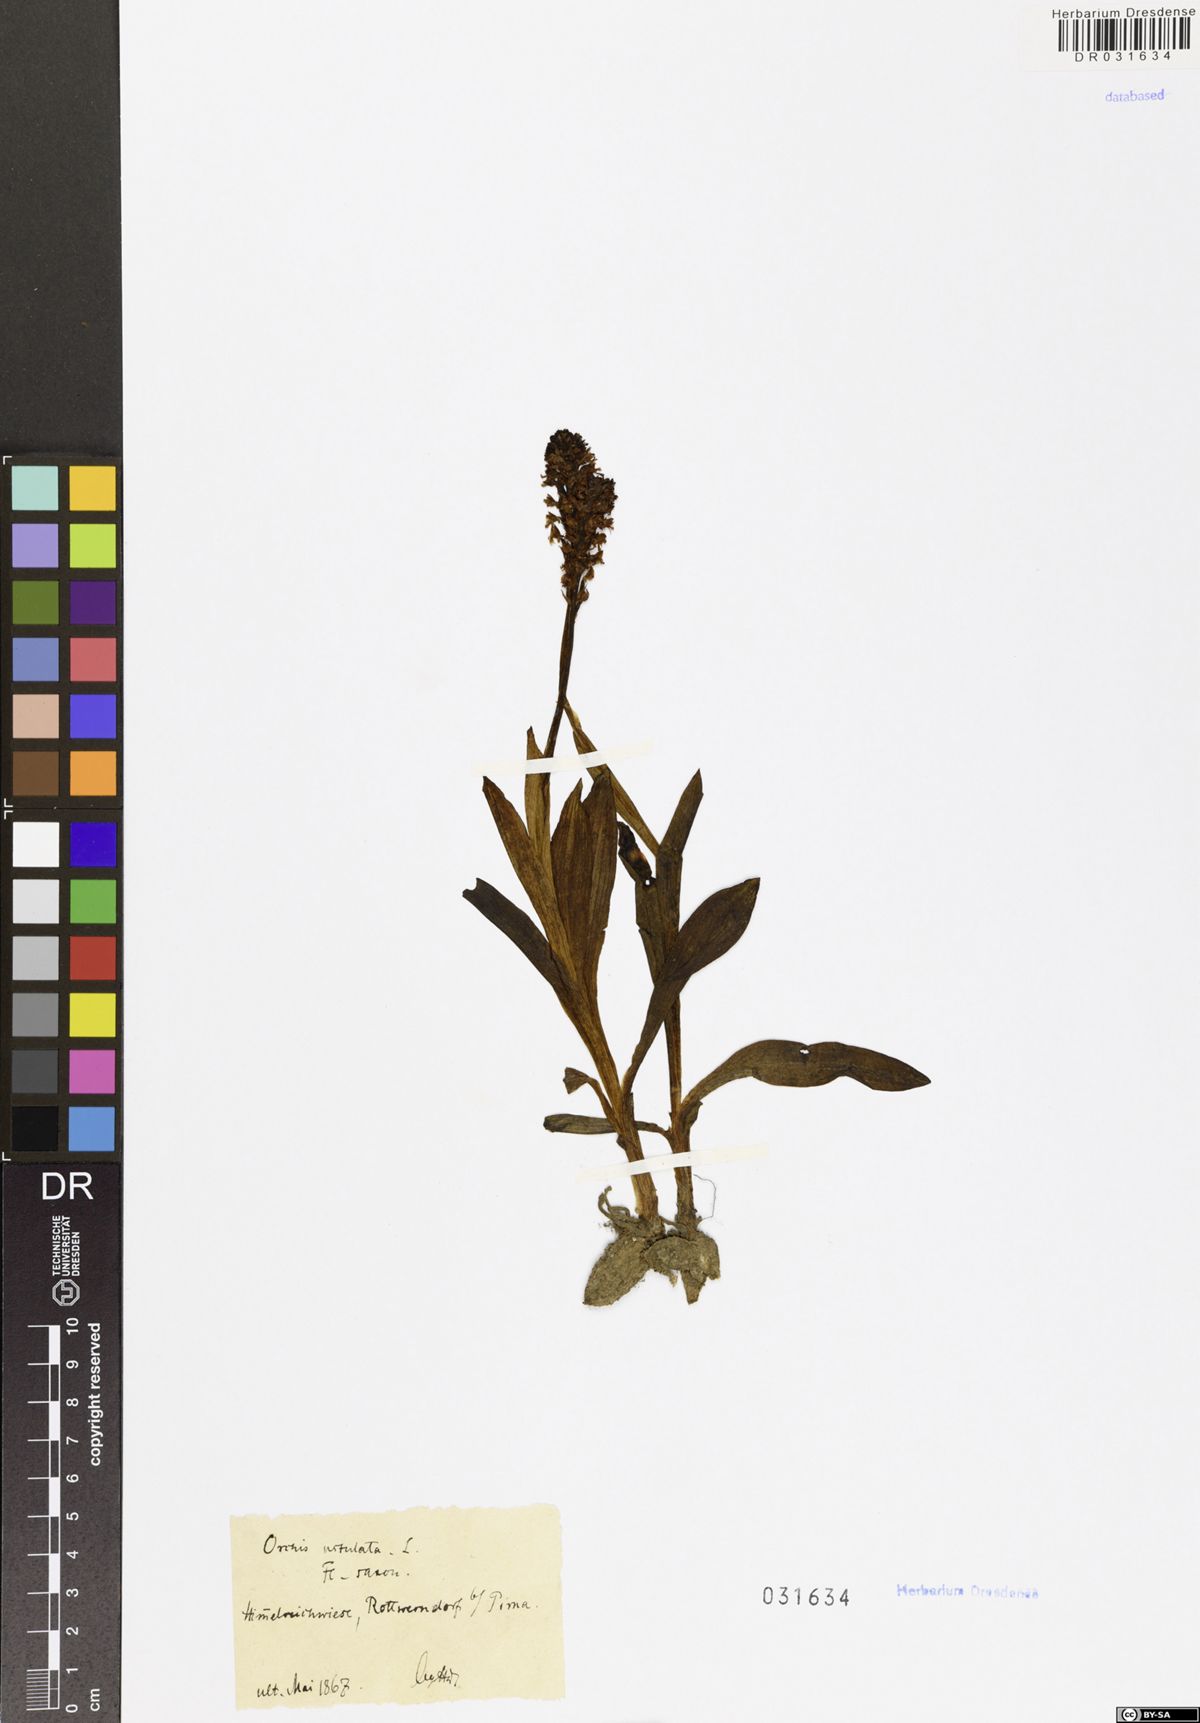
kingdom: Plantae
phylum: Tracheophyta
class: Liliopsida
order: Asparagales
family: Orchidaceae
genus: Neotinea
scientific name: Neotinea ustulata
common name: Burnt orchid
